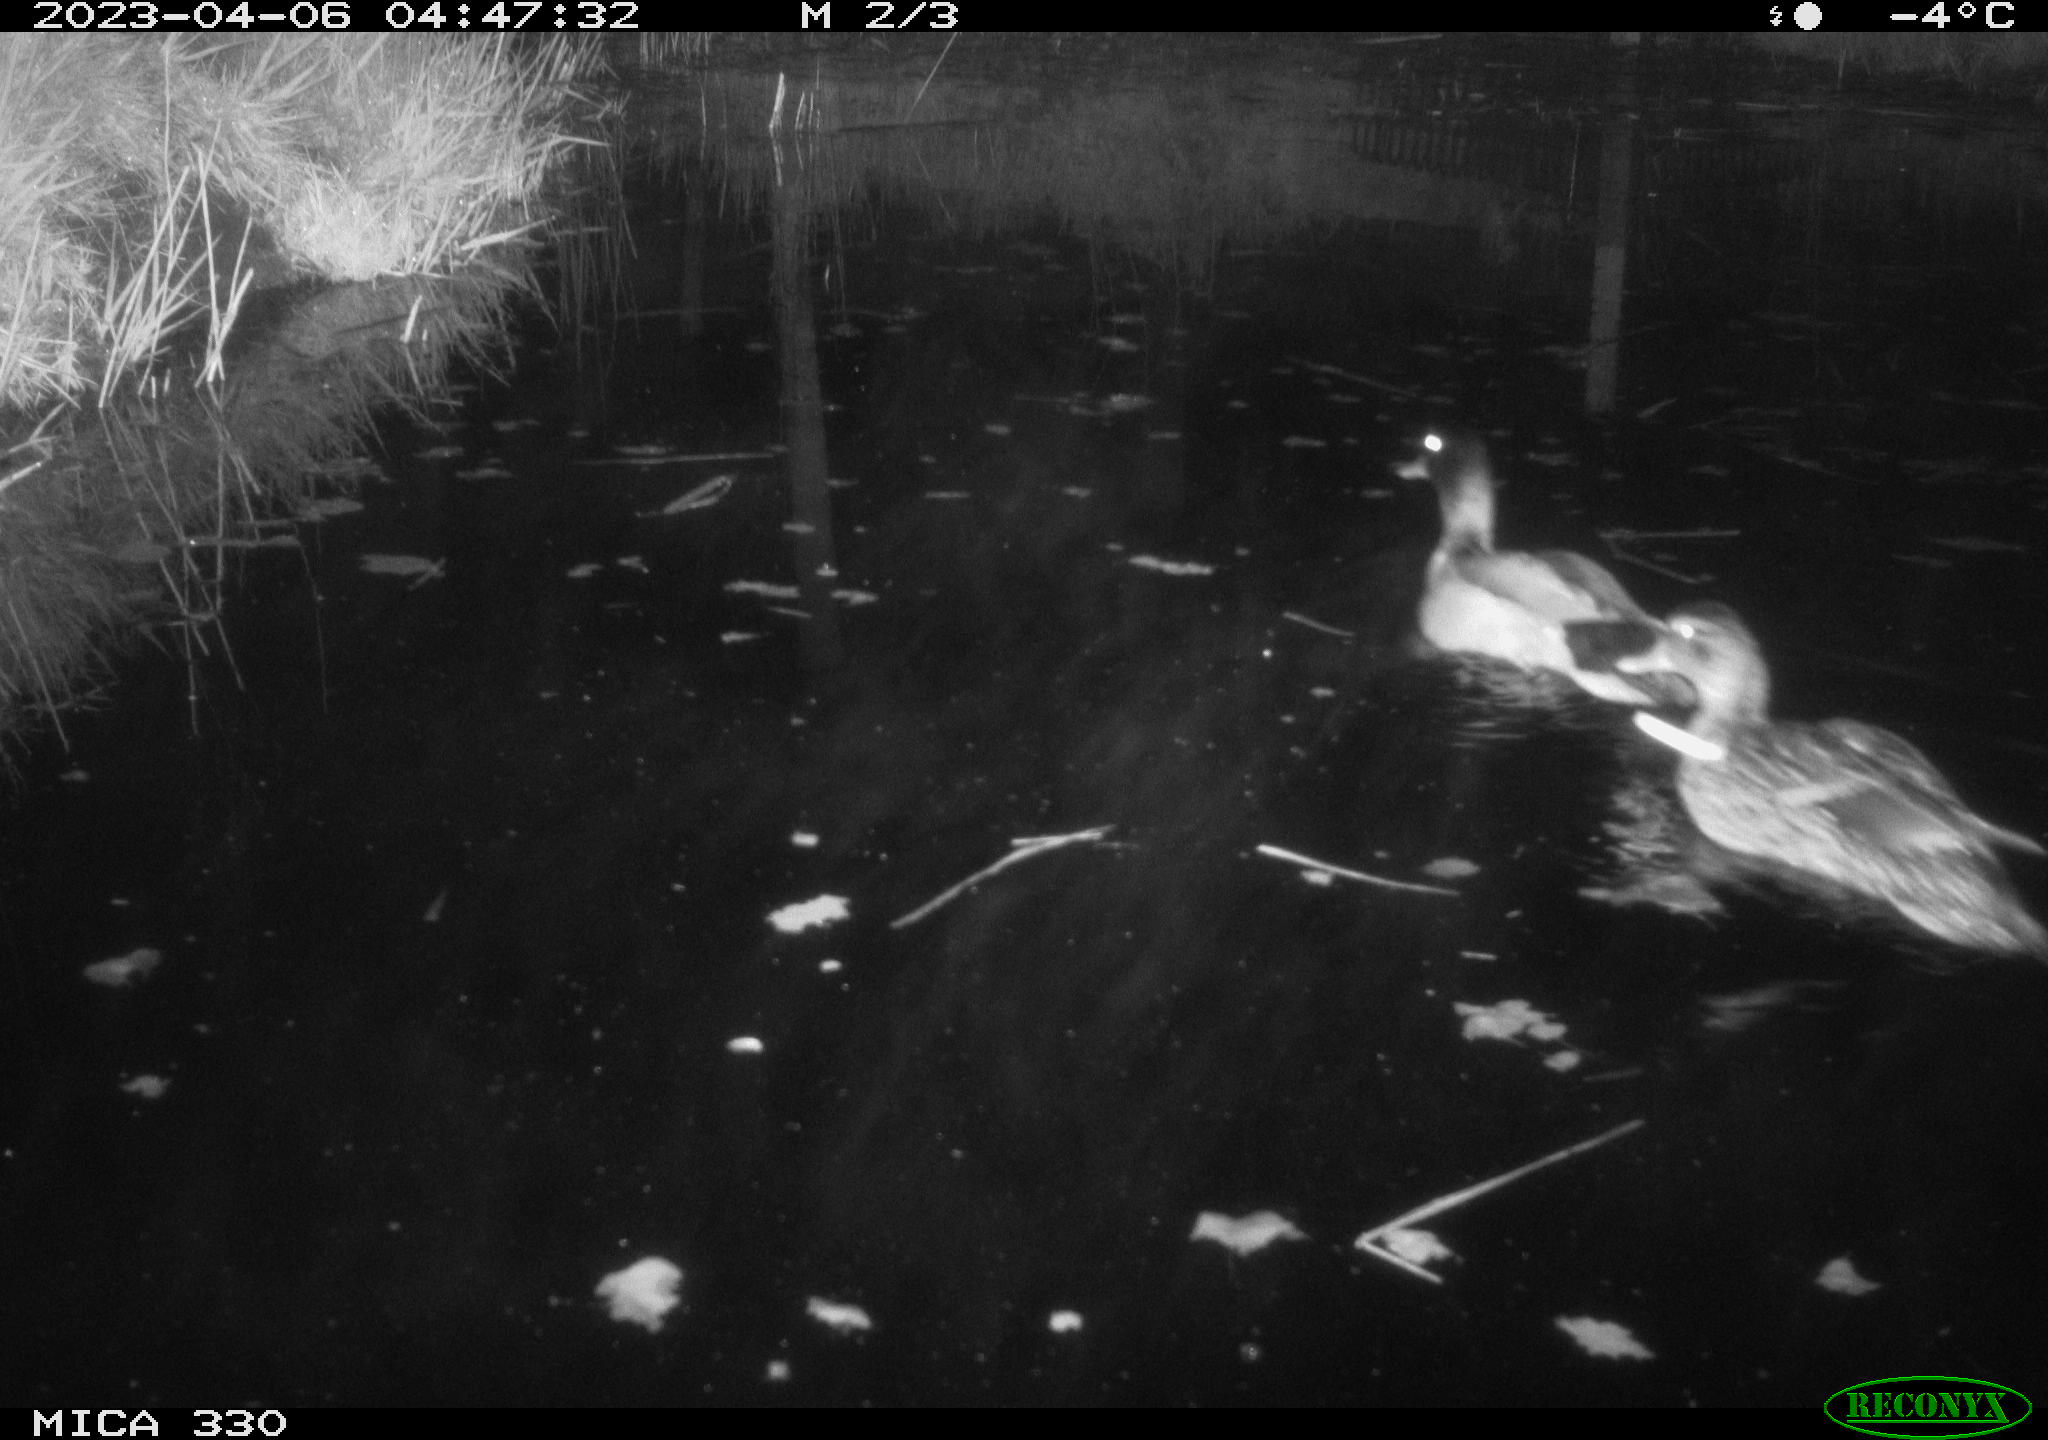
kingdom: Animalia
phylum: Chordata
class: Aves
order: Anseriformes
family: Anatidae
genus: Anas
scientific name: Anas
